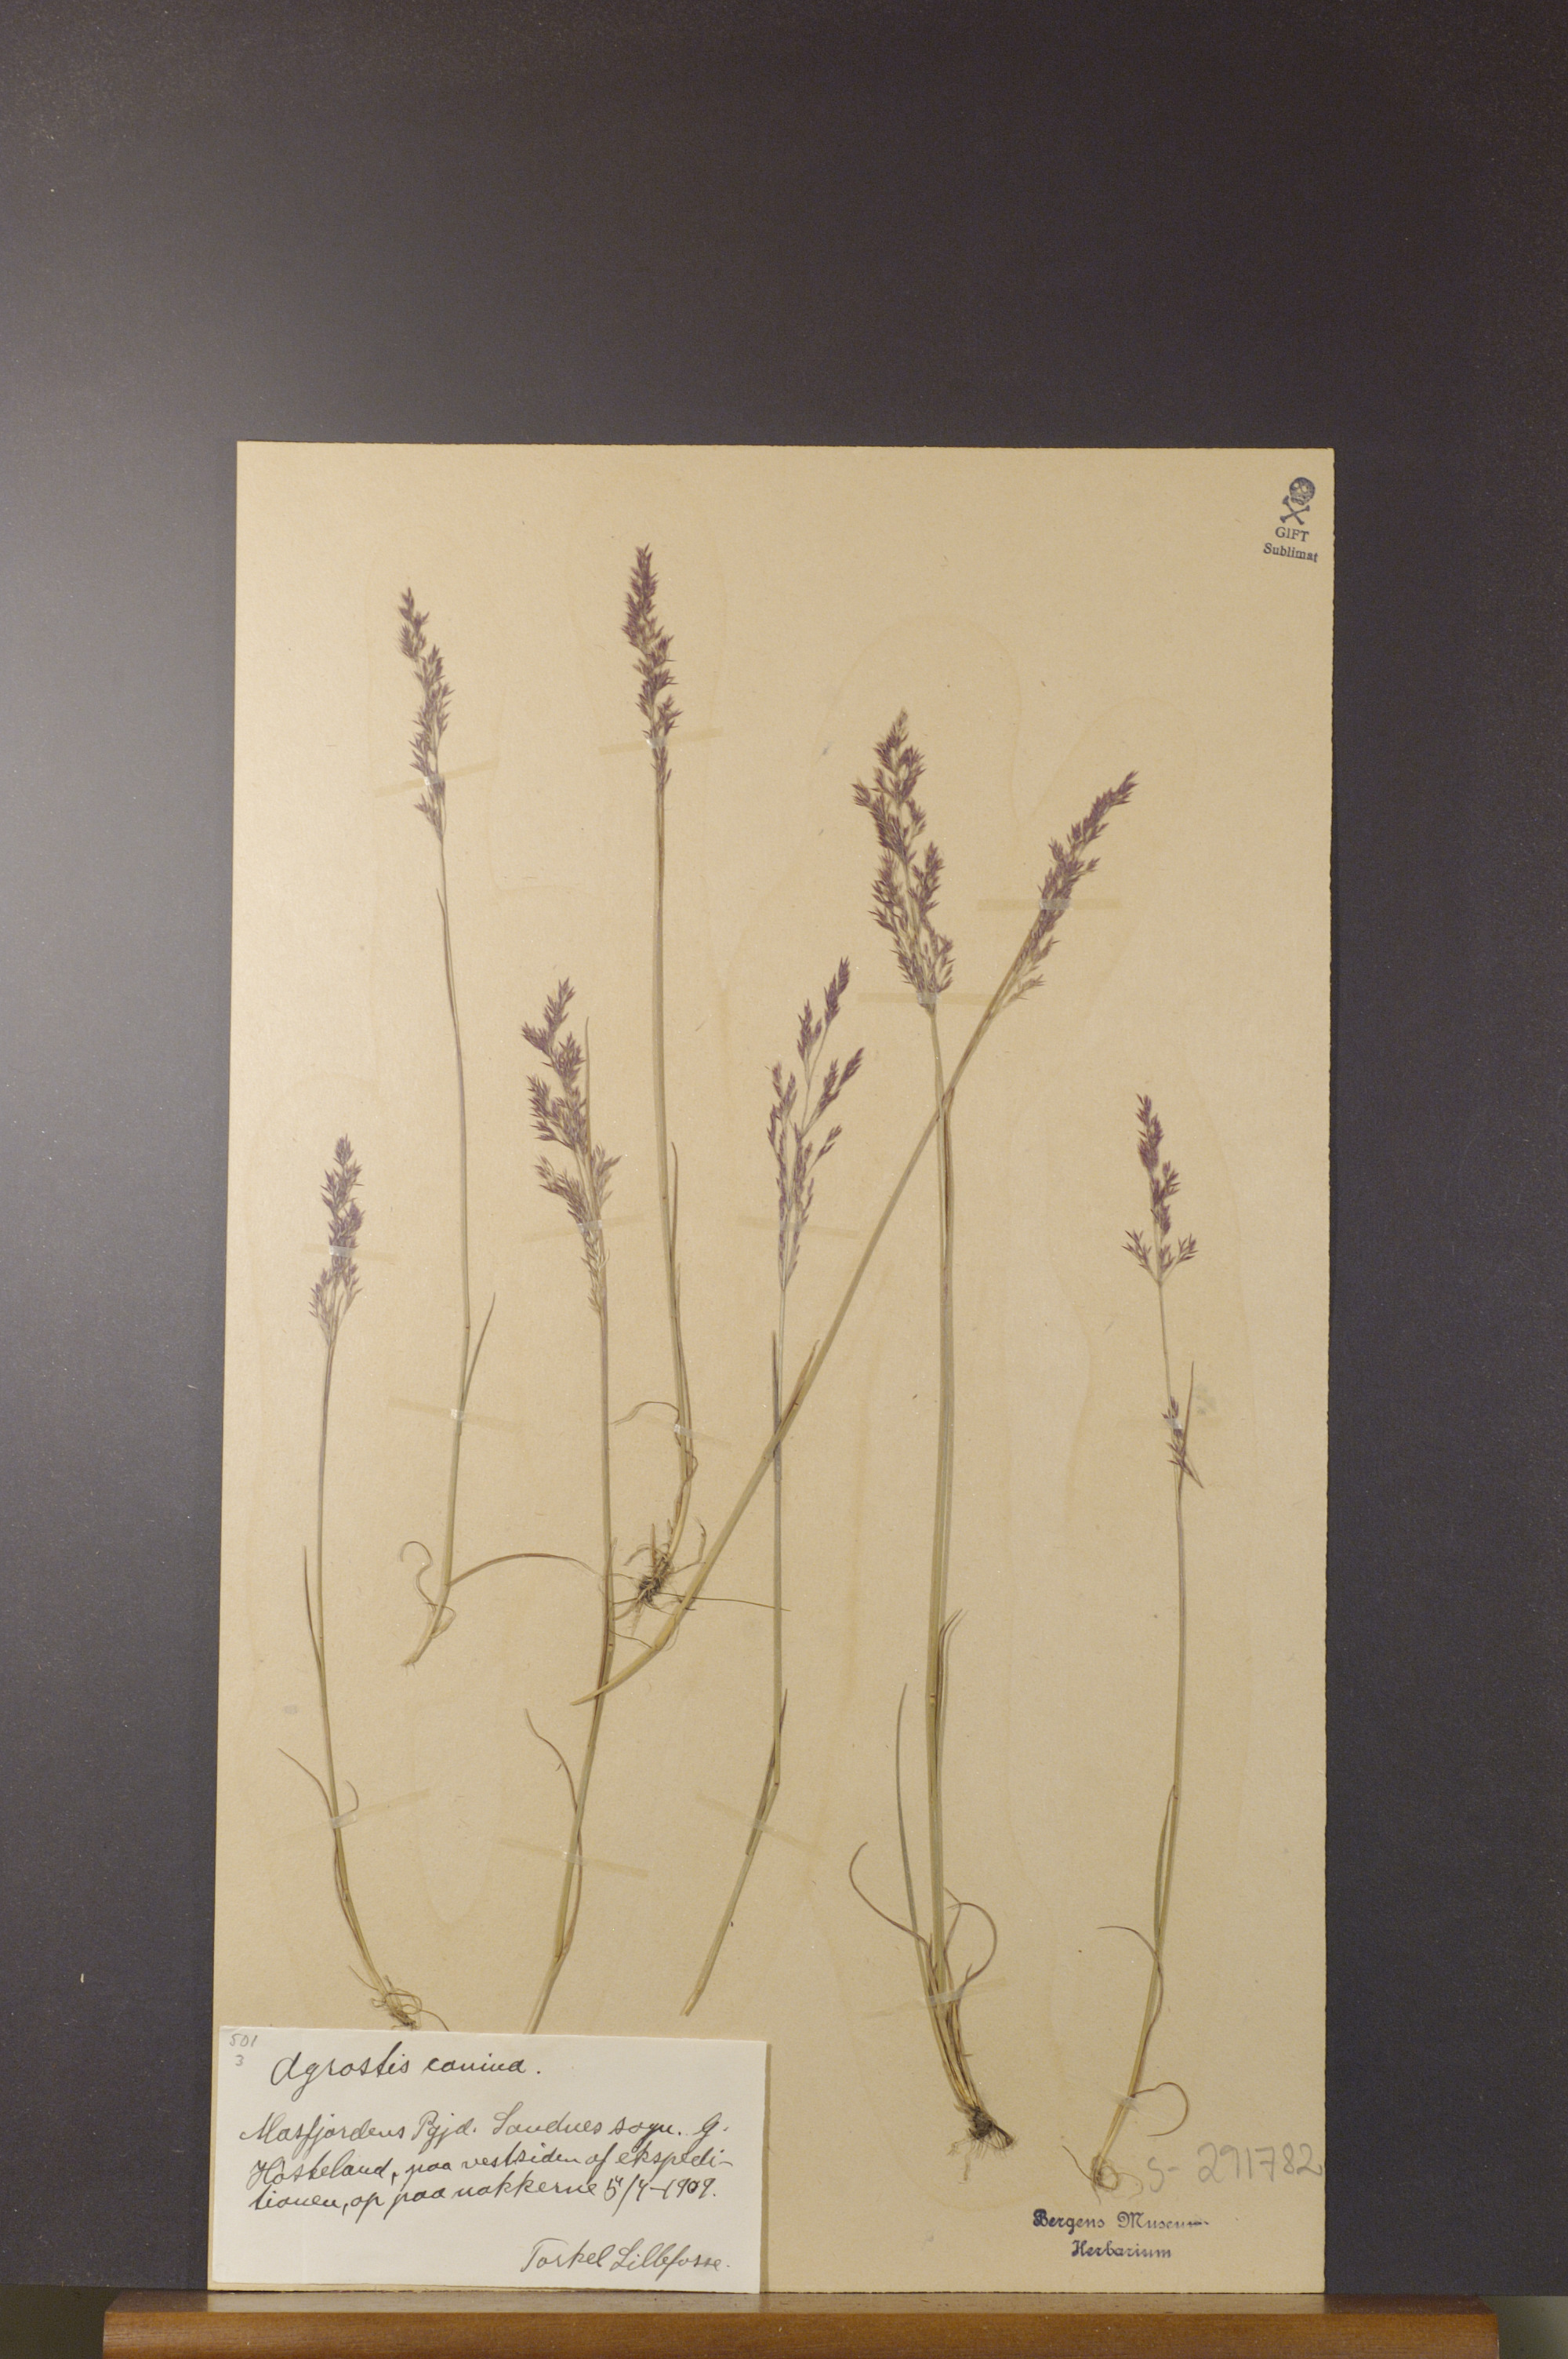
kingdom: Plantae
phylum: Tracheophyta
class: Liliopsida
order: Poales
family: Poaceae
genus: Agrostis
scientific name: Agrostis canina
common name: Velvet bent
